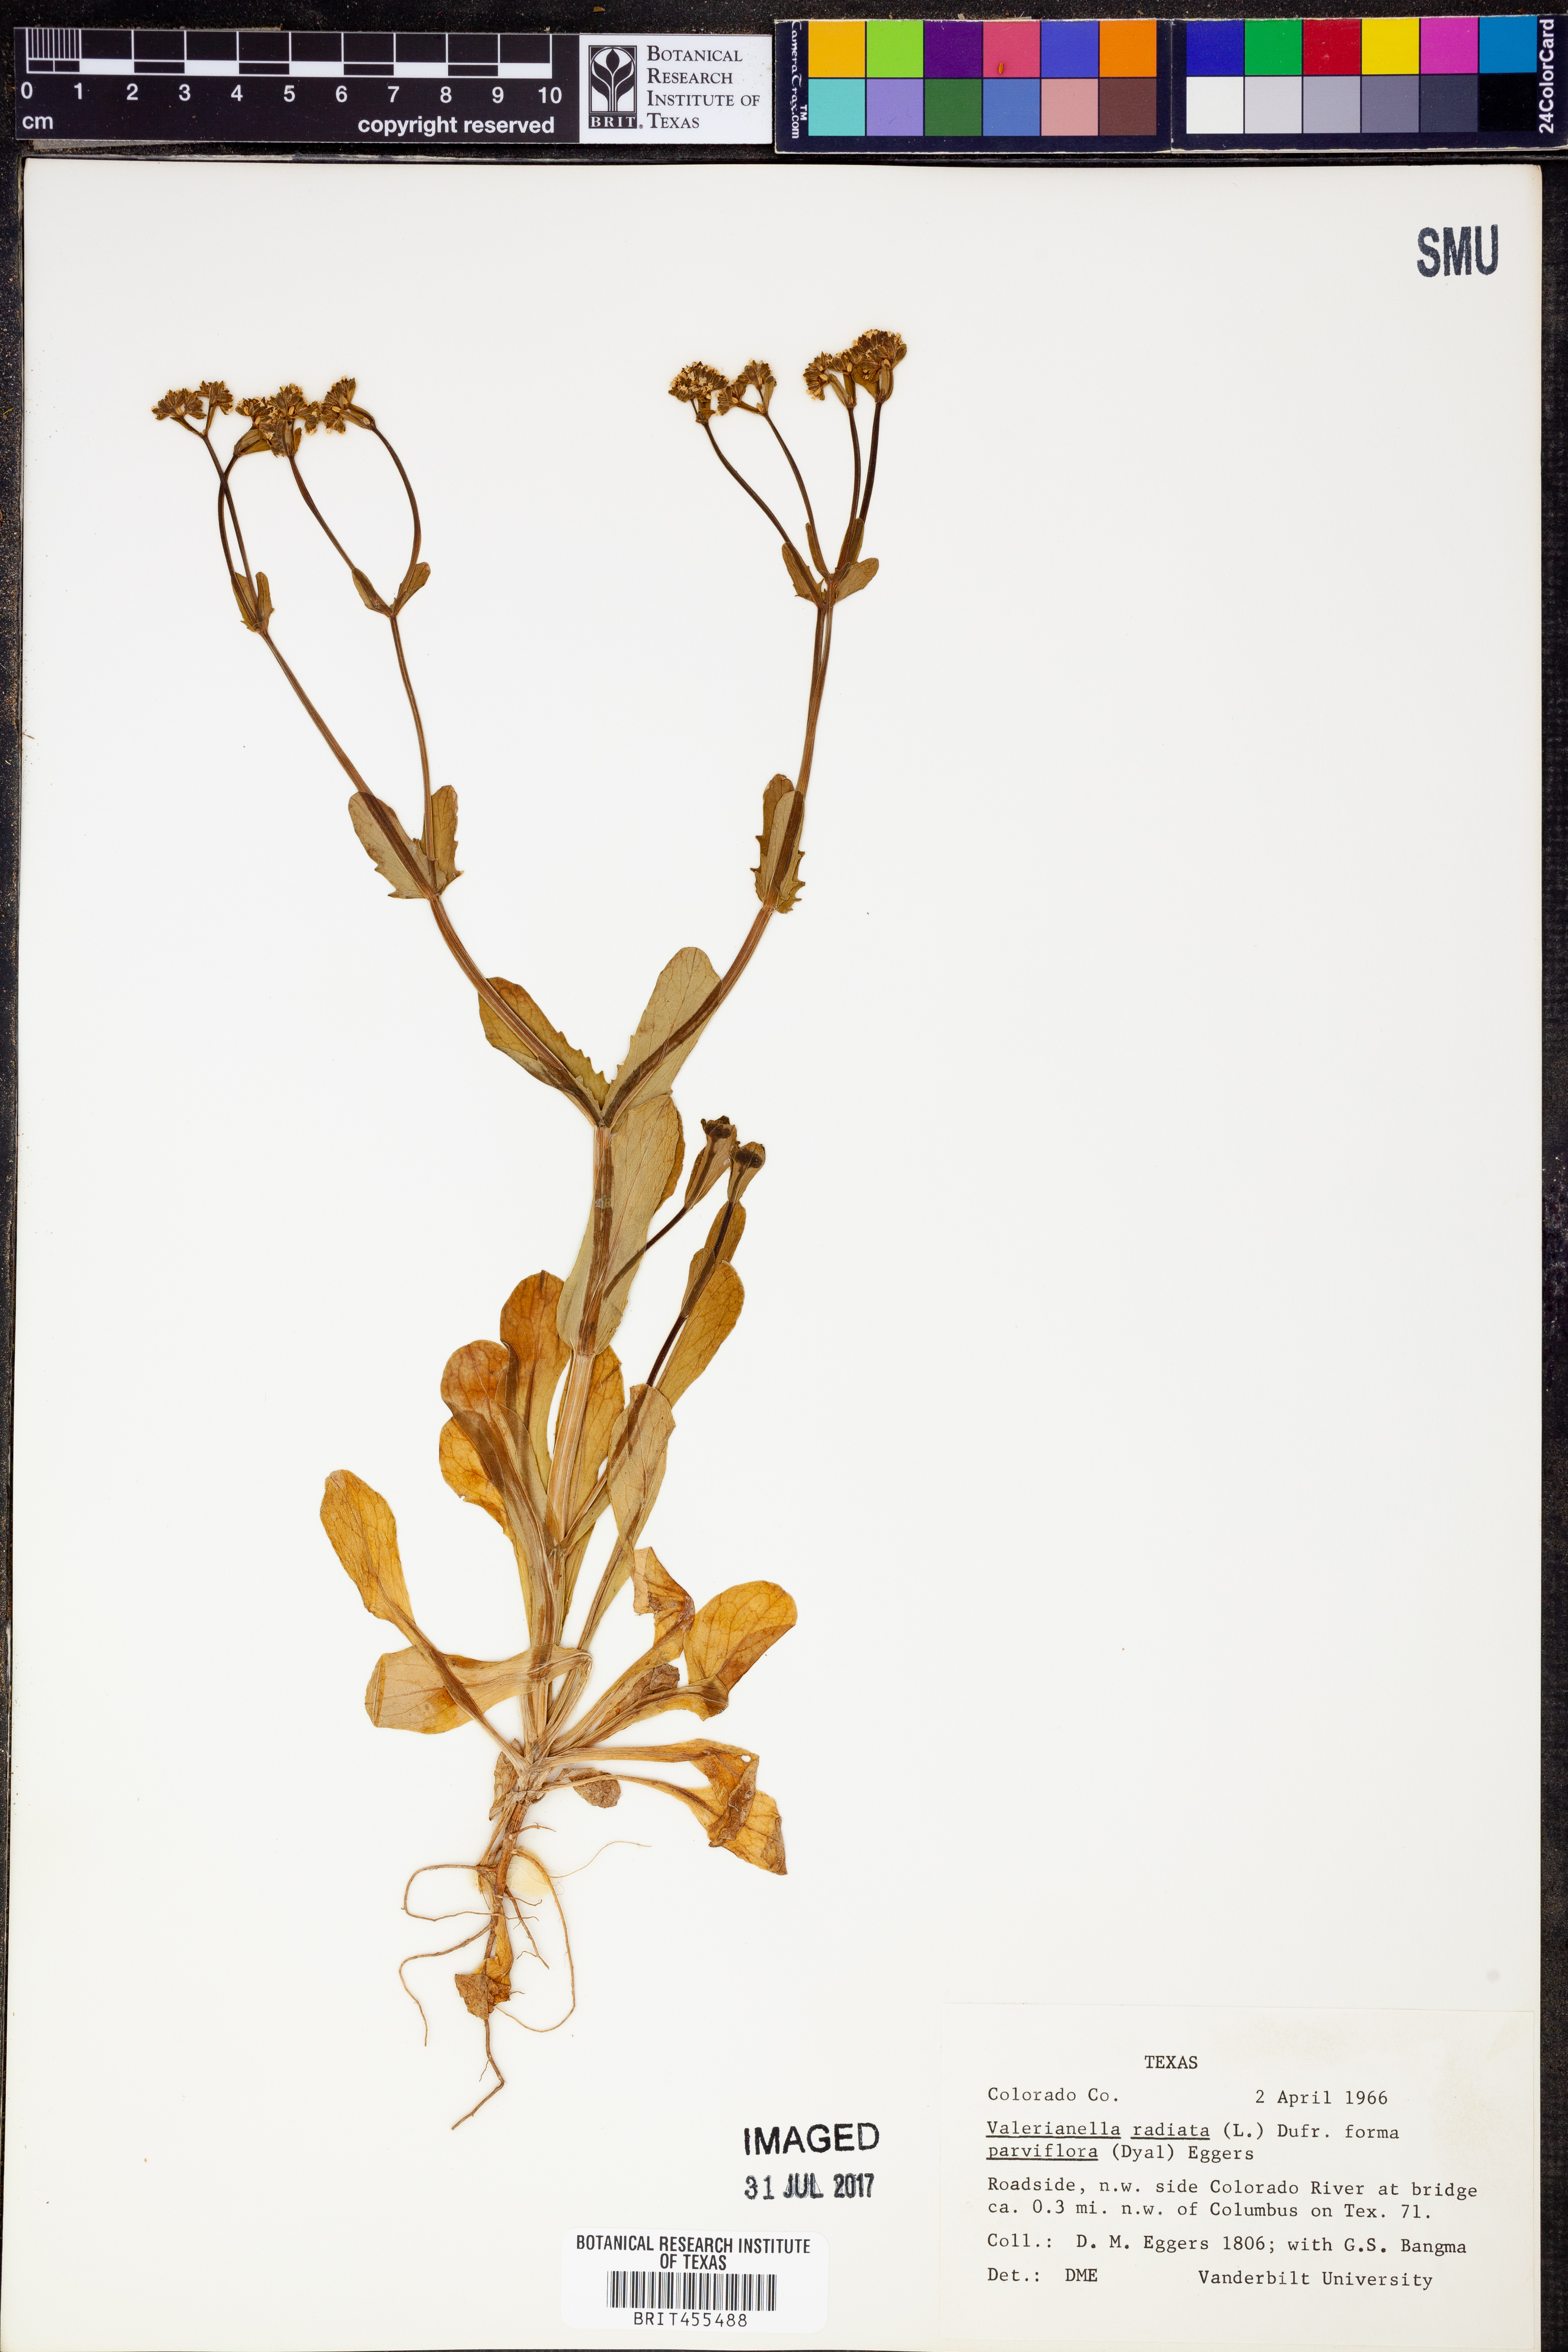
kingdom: Plantae
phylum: Tracheophyta
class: Magnoliopsida
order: Dipsacales
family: Caprifoliaceae
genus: Valerianella
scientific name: Valerianella radiata
